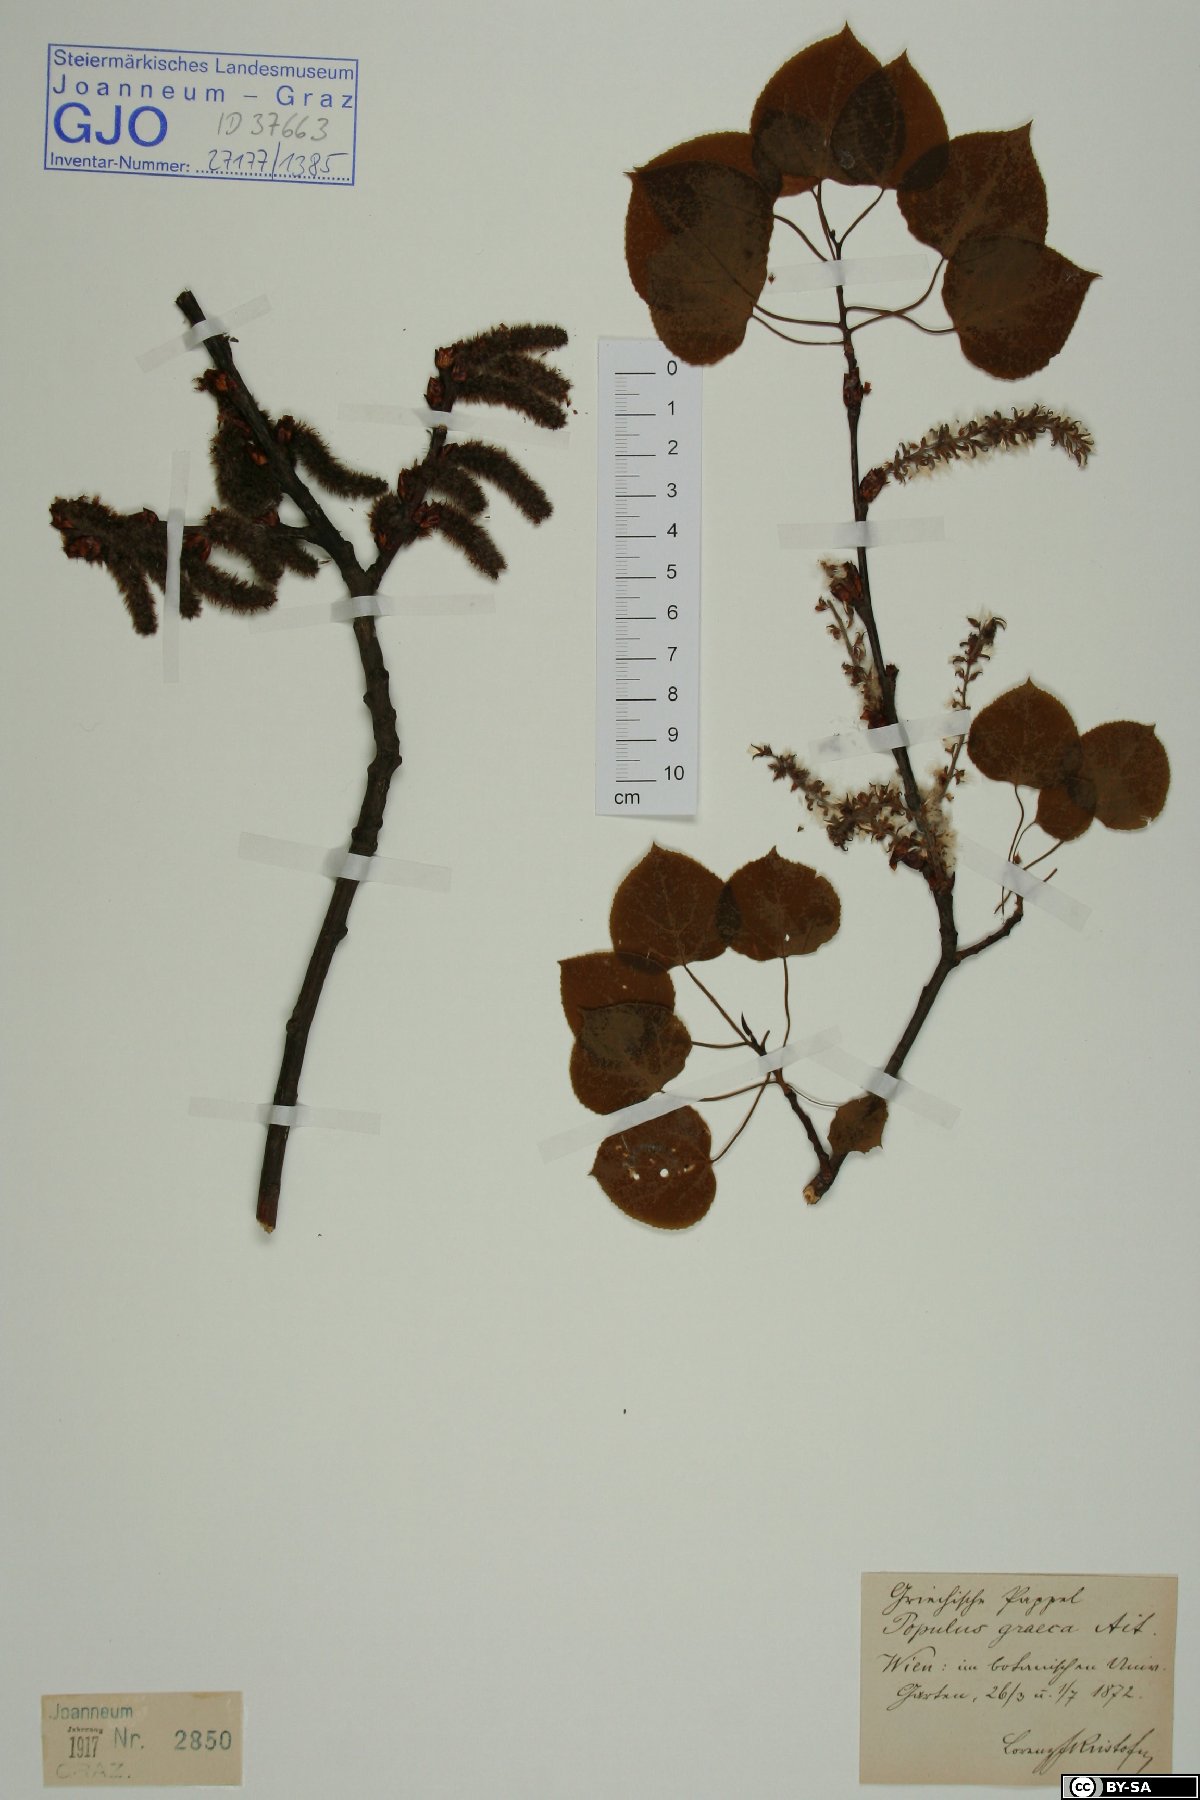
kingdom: Plantae
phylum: Tracheophyta
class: Magnoliopsida
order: Malpighiales
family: Salicaceae
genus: Populus
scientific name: Populus tremuloides
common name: Quaking aspen
